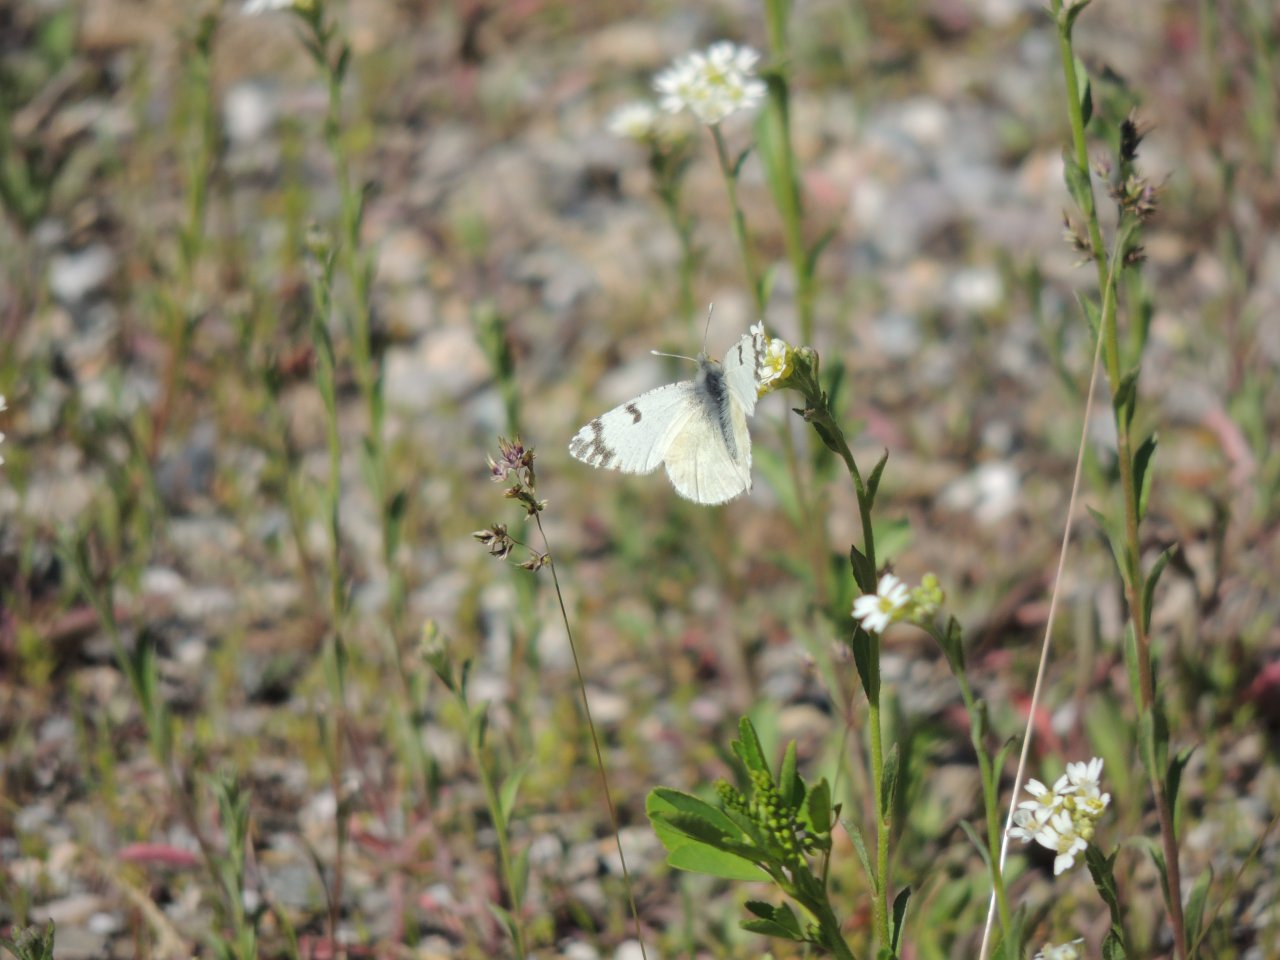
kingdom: Animalia
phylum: Arthropoda
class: Insecta
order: Lepidoptera
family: Pieridae
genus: Euchloe
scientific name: Euchloe ausonides
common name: Large Marble
